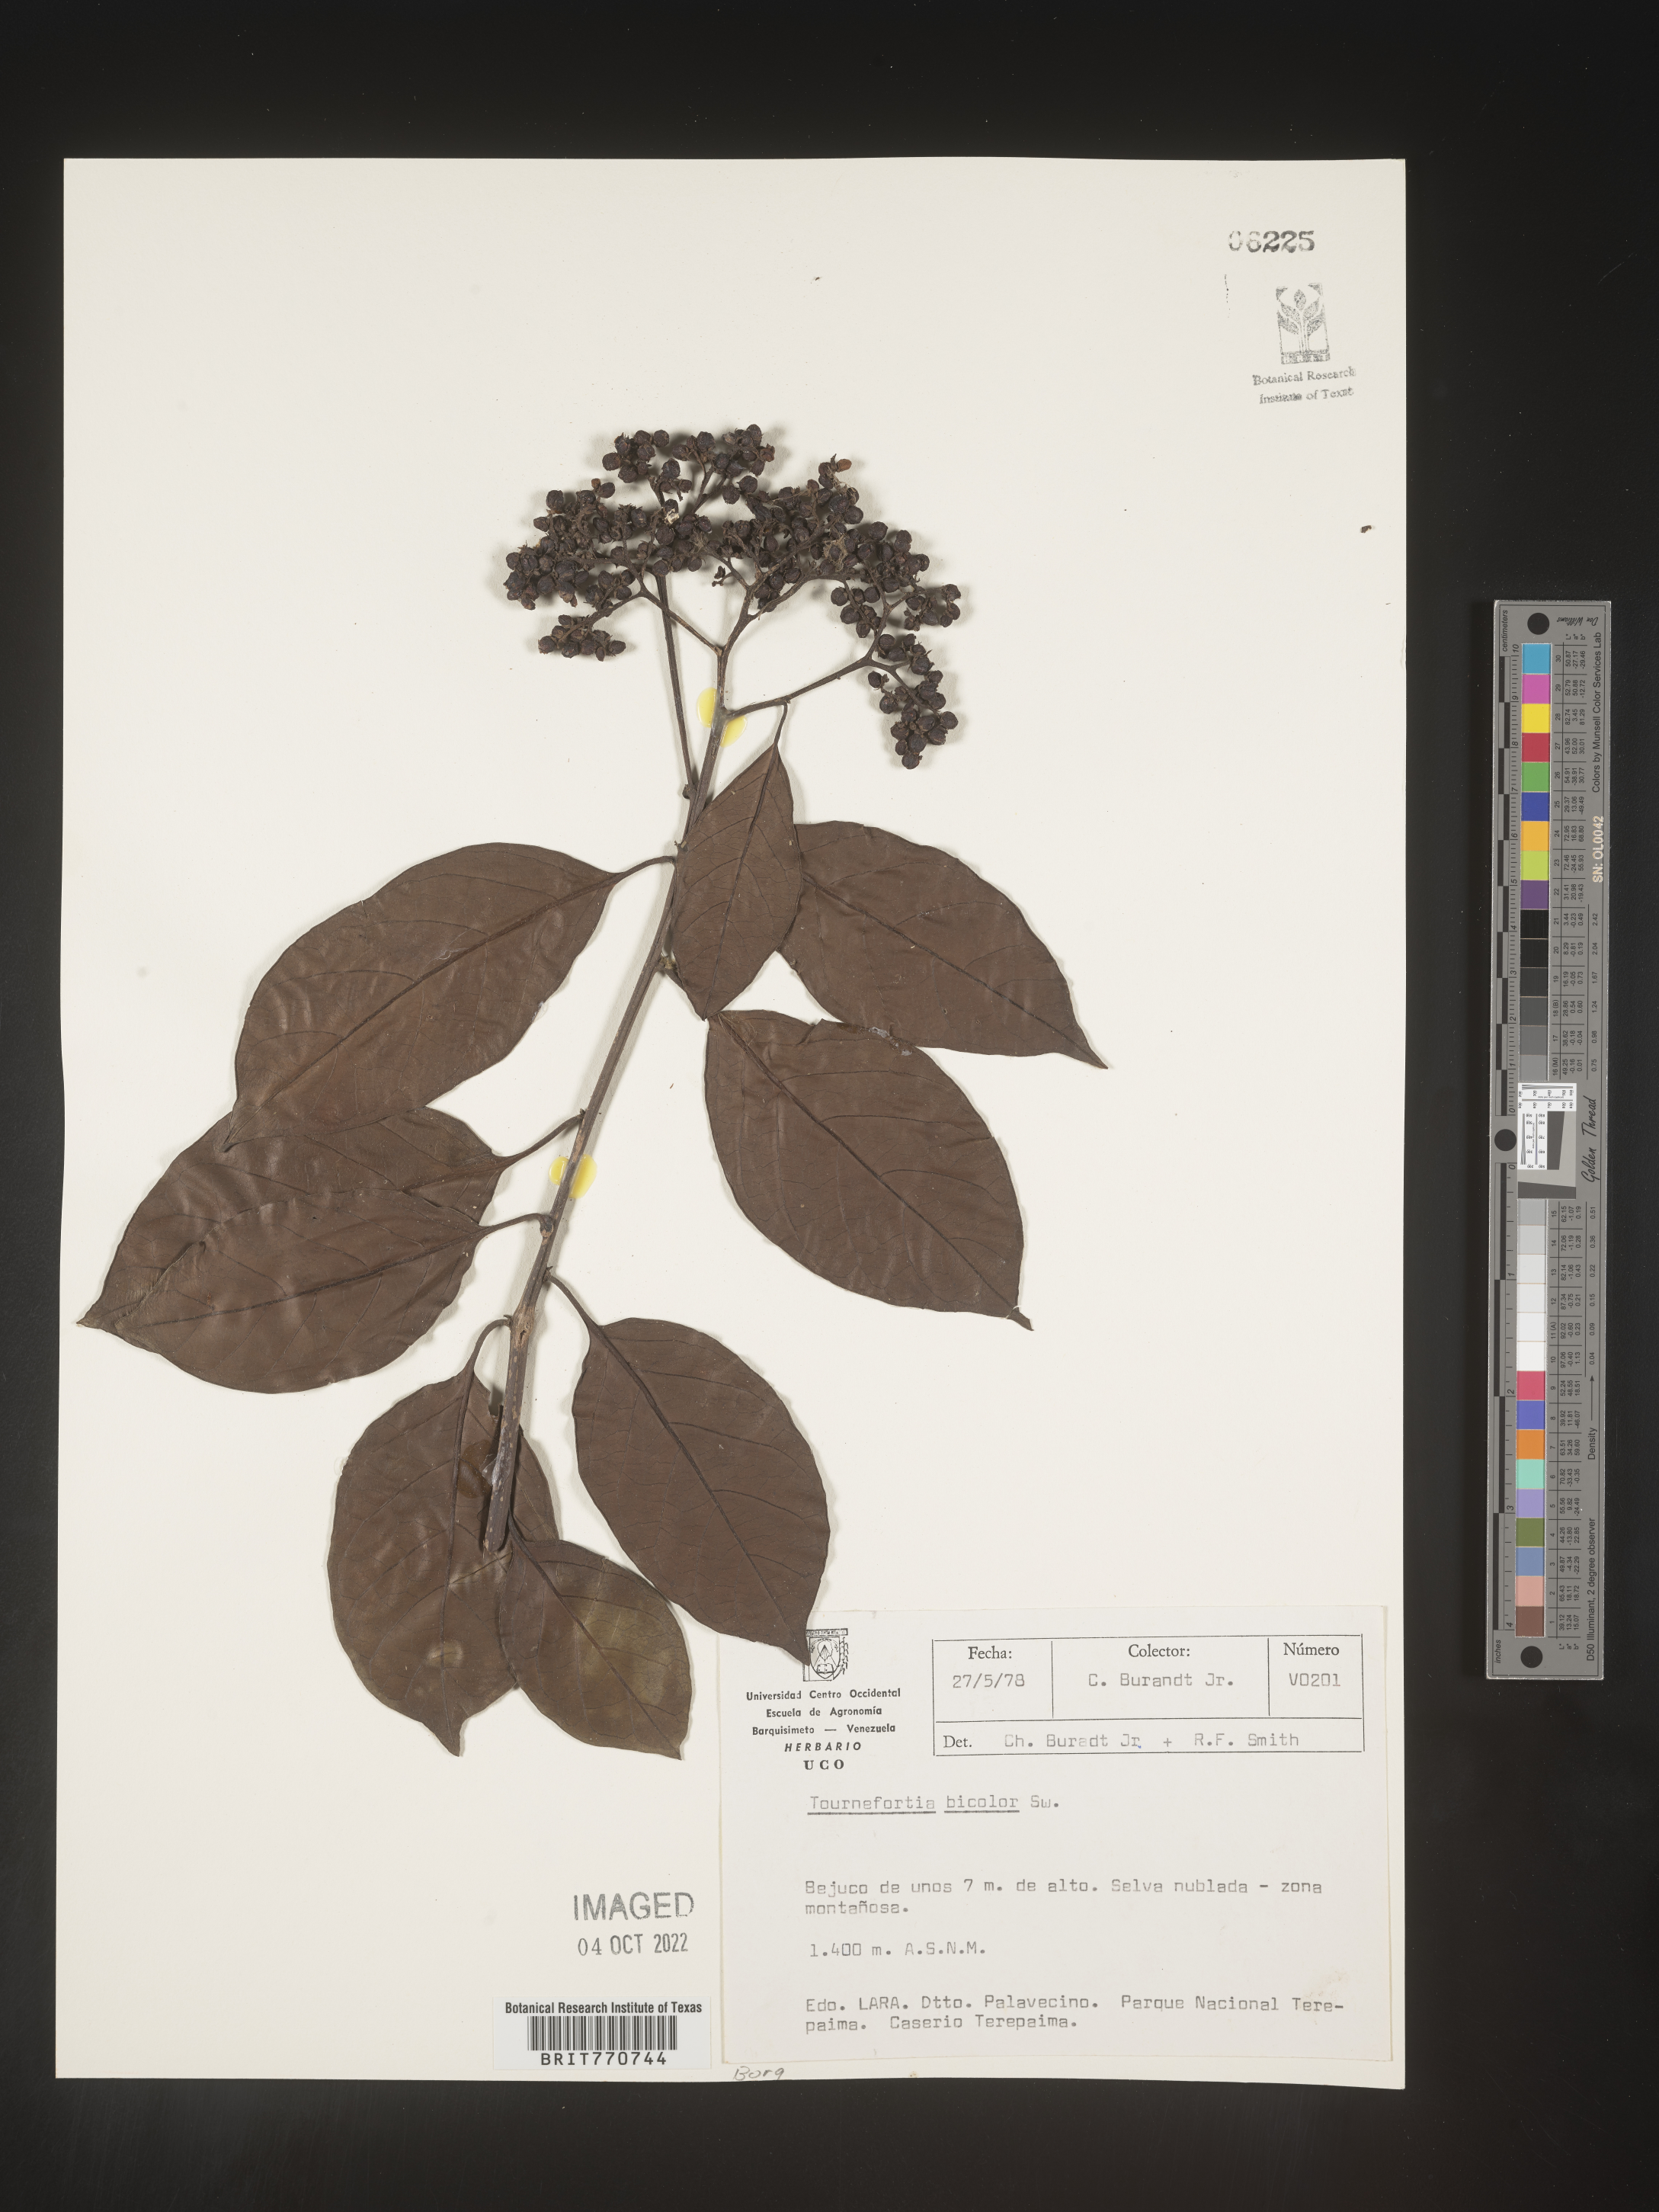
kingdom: Plantae
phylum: Tracheophyta
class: Magnoliopsida
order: Boraginales
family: Heliotropiaceae
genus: Tournefortia
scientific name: Tournefortia
